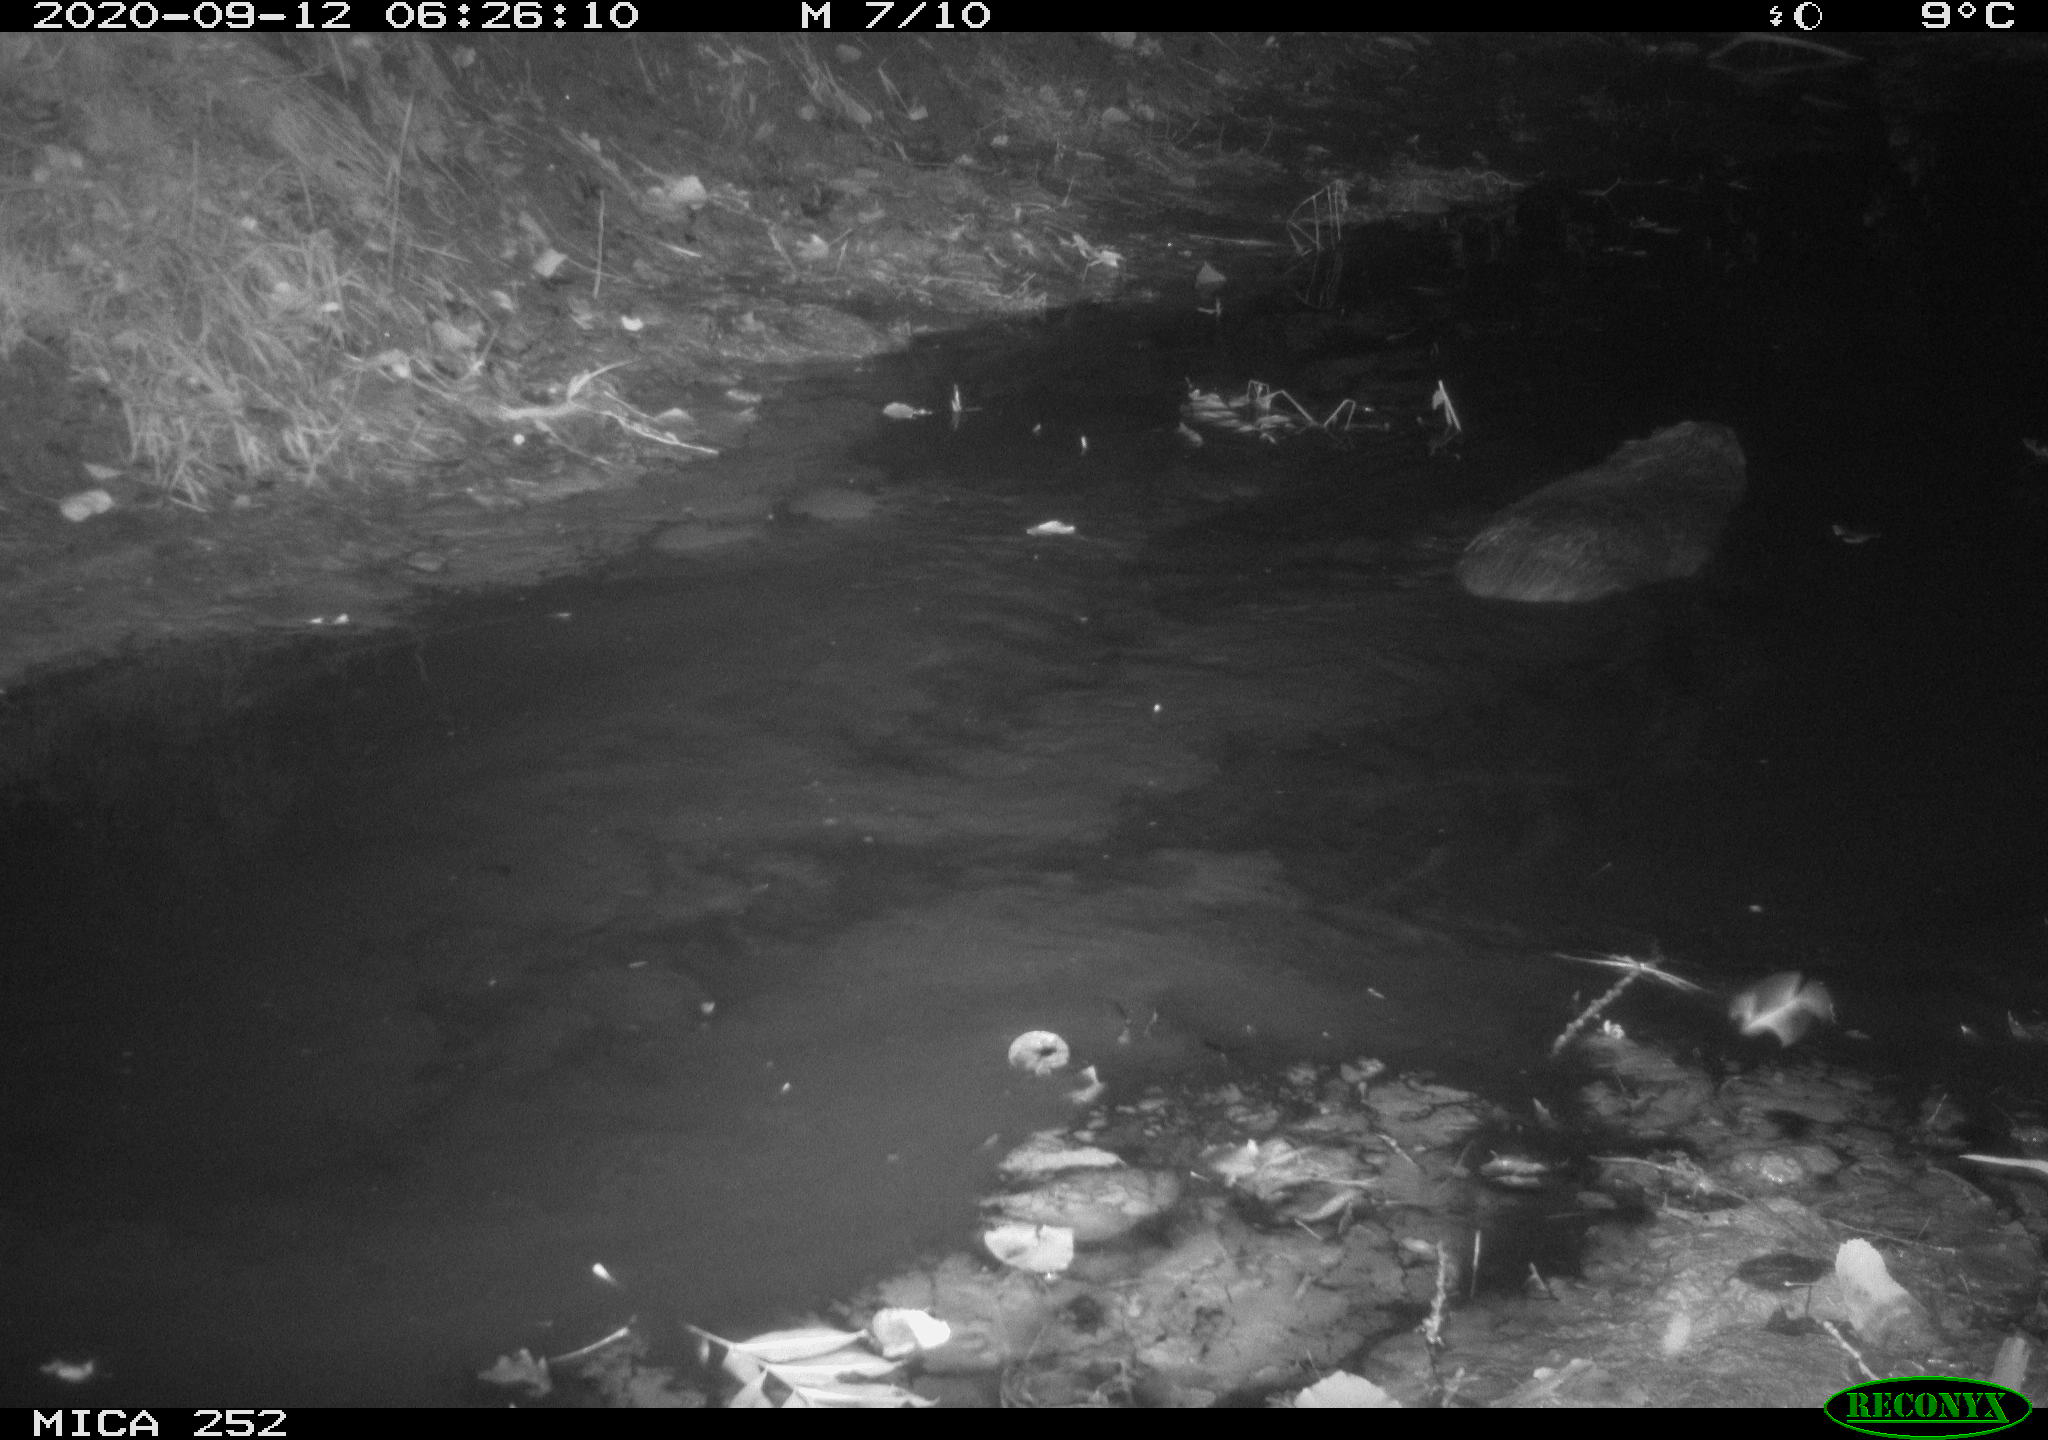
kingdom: Animalia
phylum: Chordata
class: Mammalia
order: Rodentia
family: Castoridae
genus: Castor
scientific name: Castor fiber
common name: Eurasian beaver
